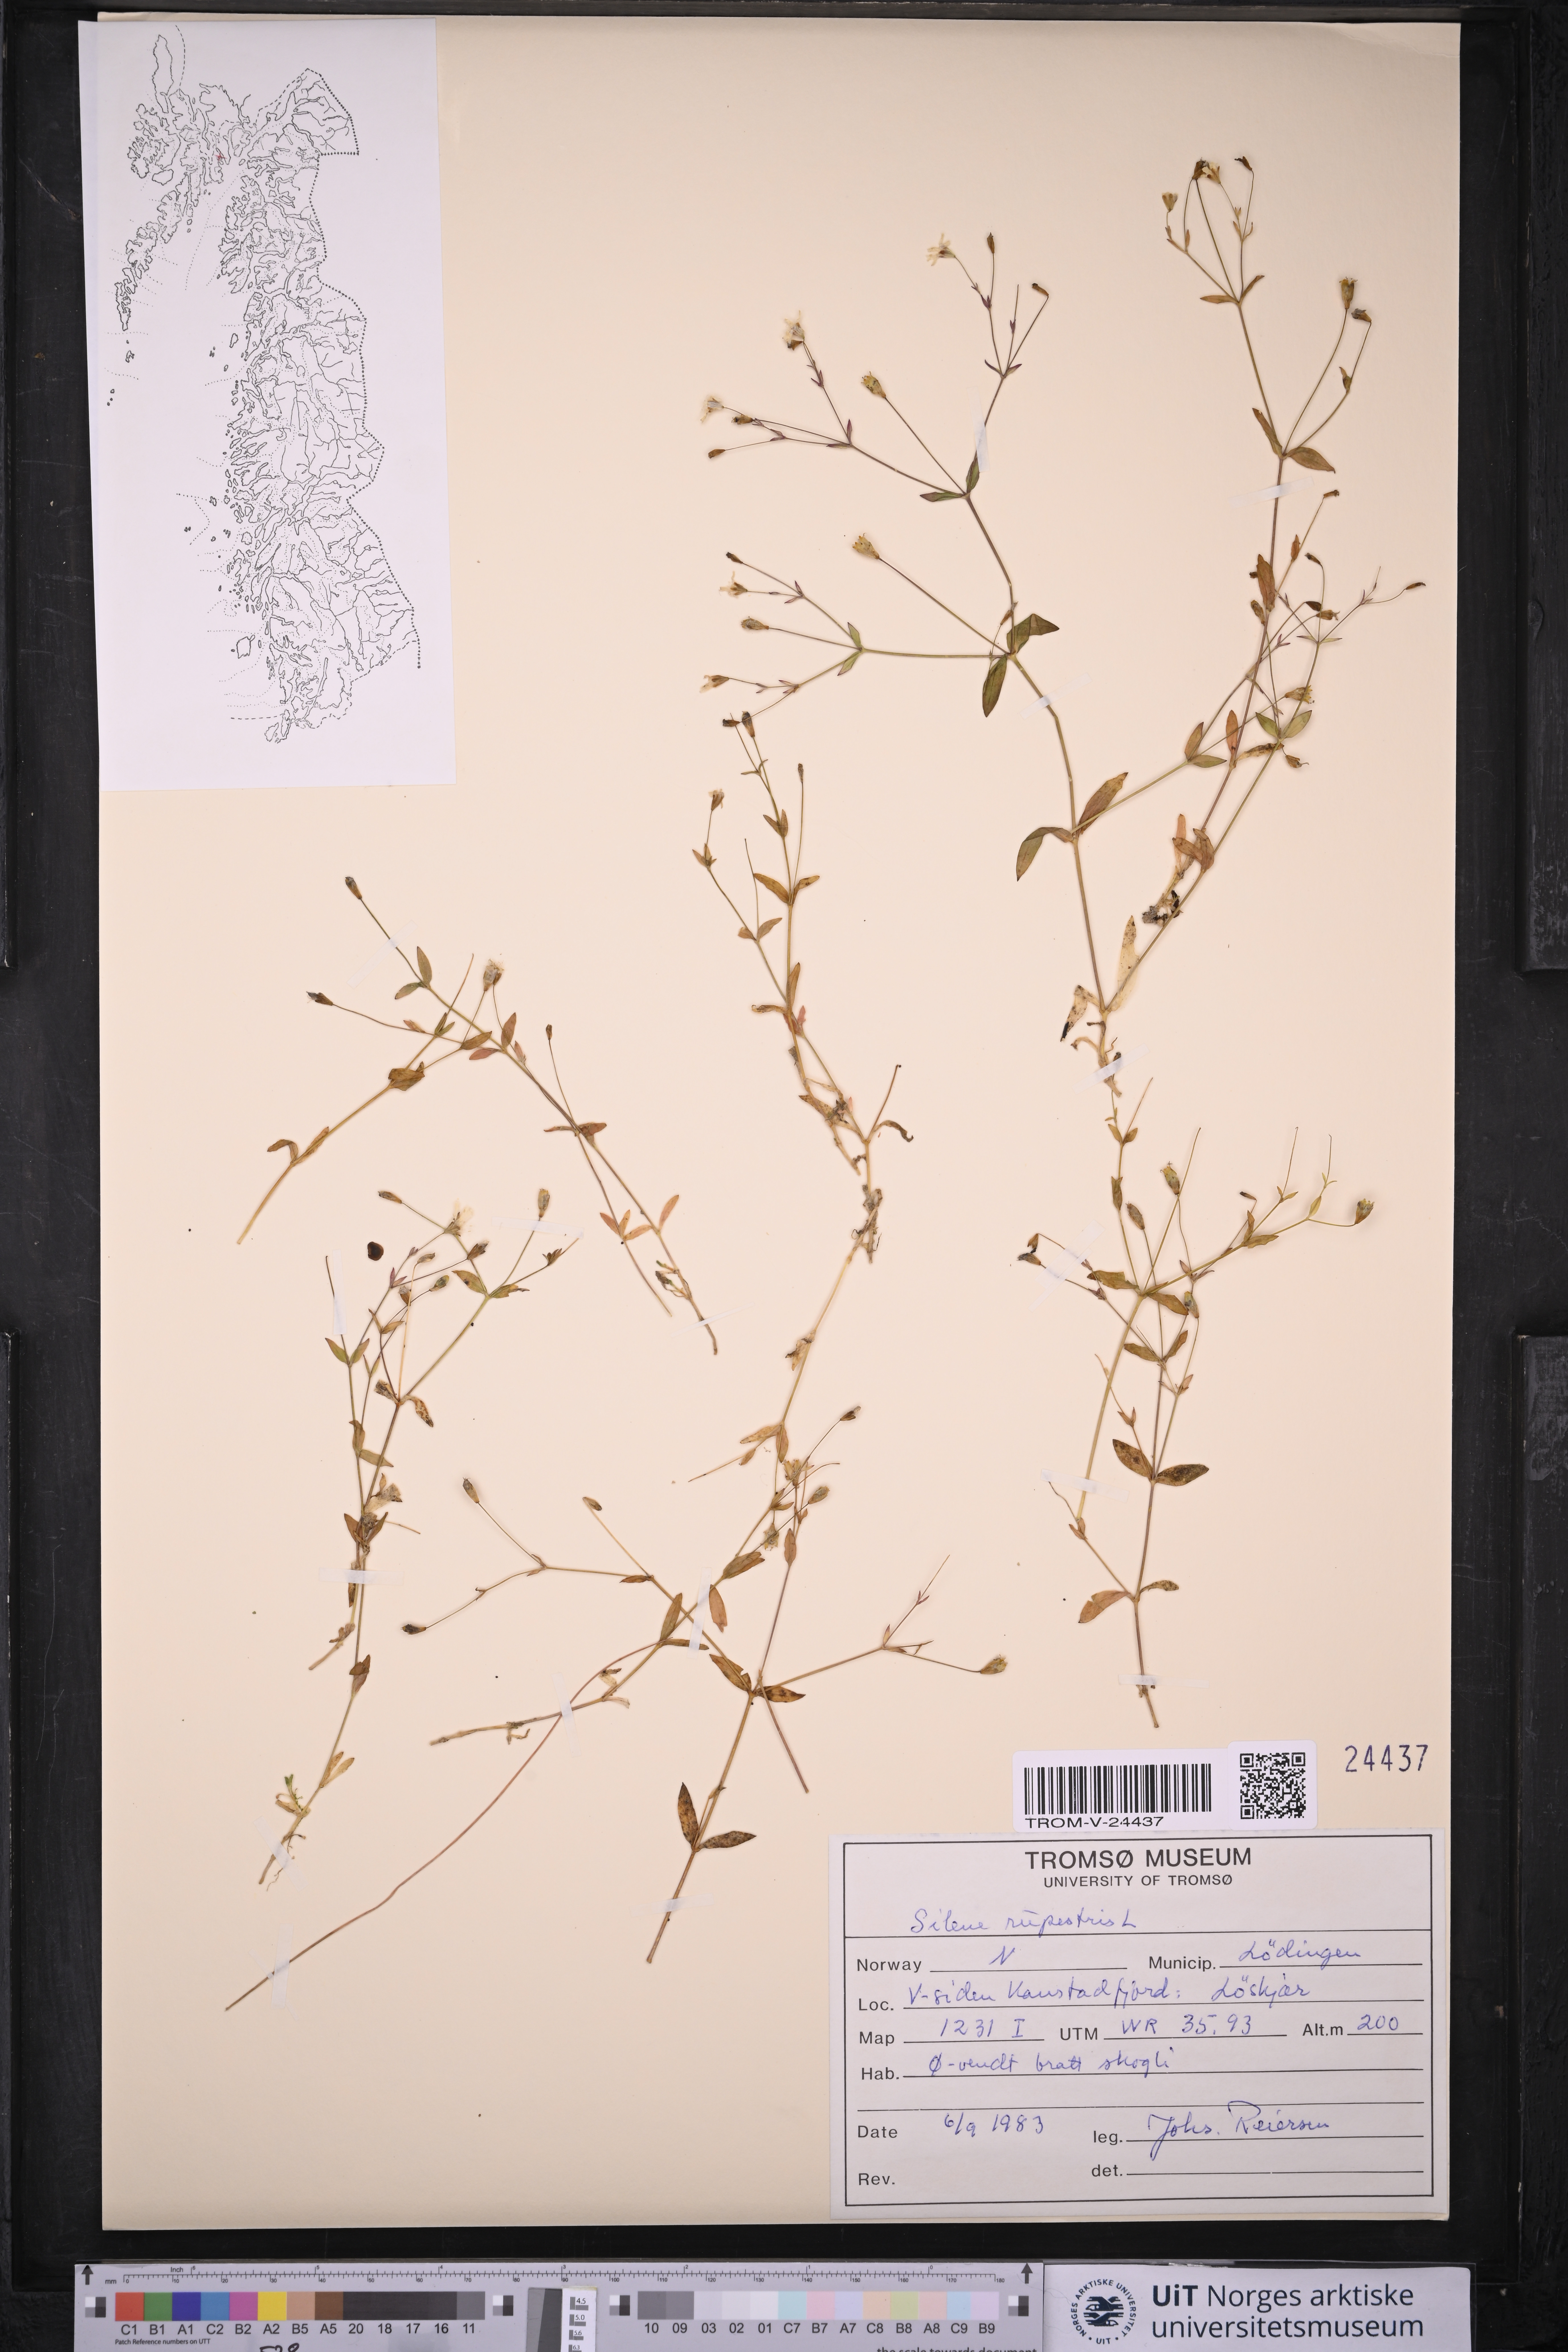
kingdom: Plantae
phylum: Tracheophyta
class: Magnoliopsida
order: Caryophyllales
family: Caryophyllaceae
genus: Atocion
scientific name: Atocion rupestre
